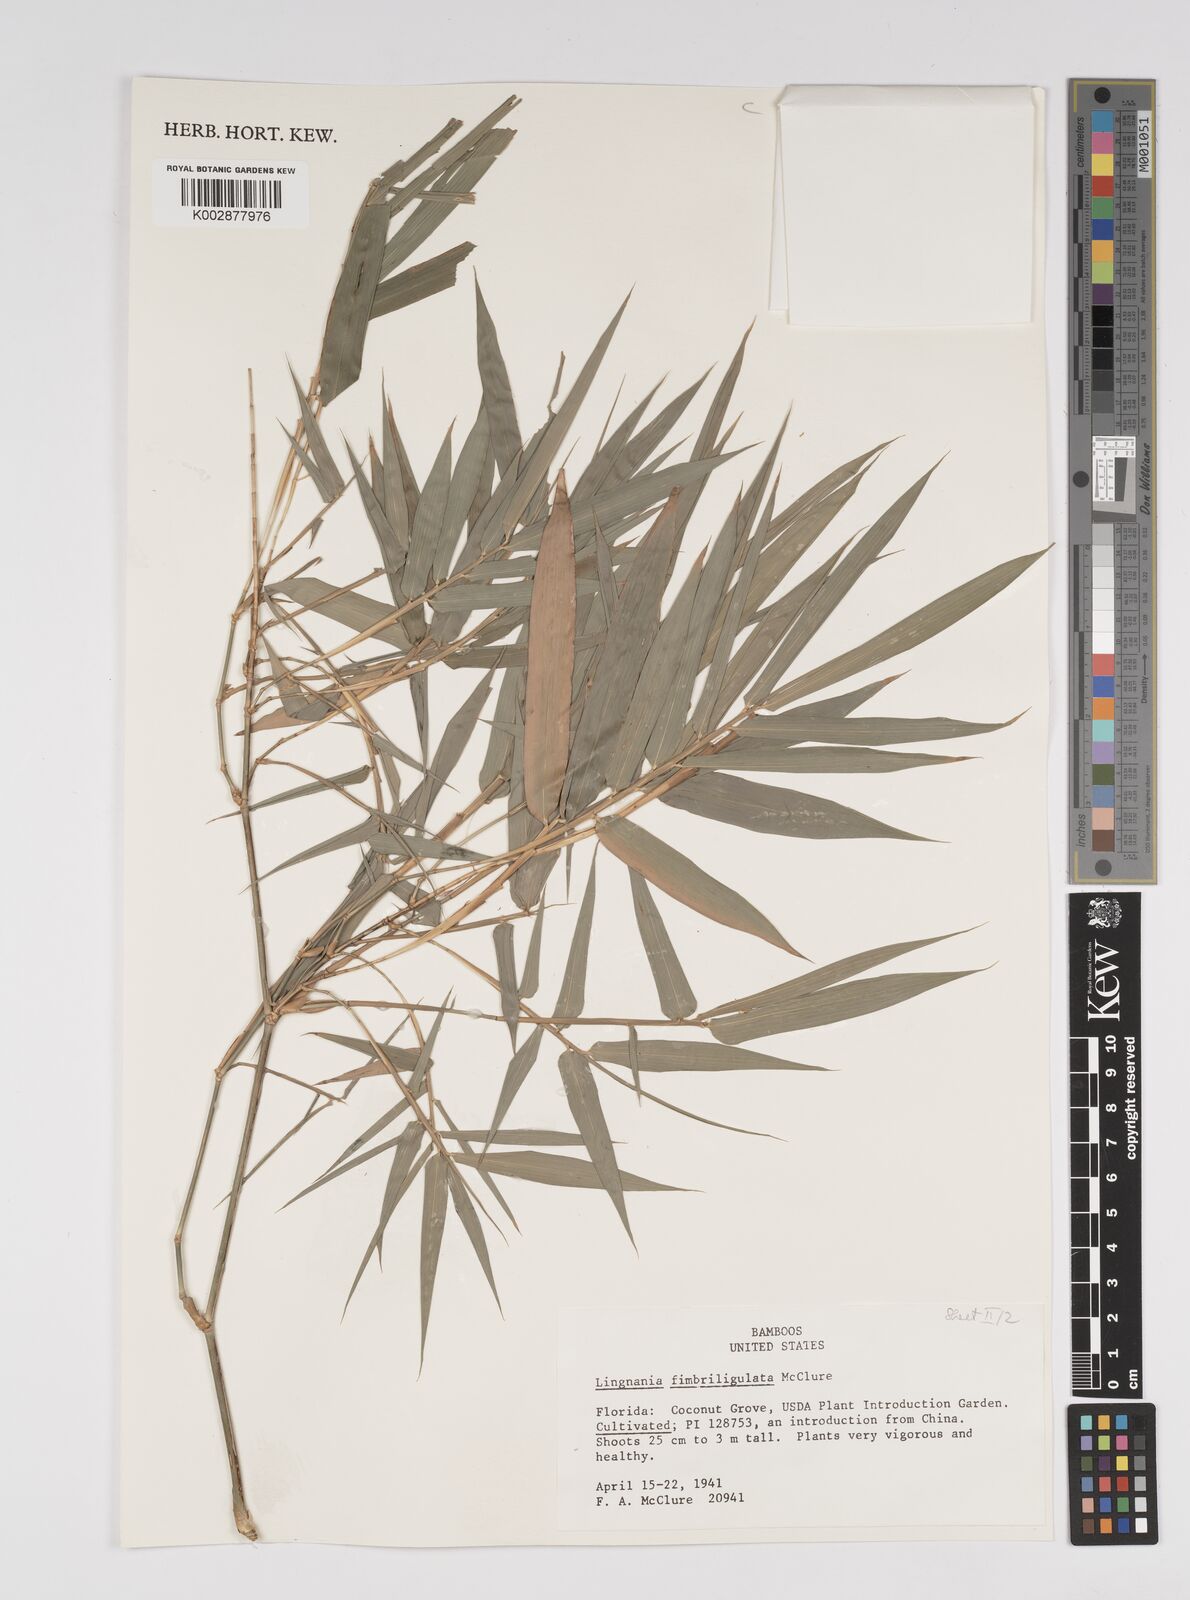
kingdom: Plantae
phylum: Tracheophyta
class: Liliopsida
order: Poales
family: Poaceae
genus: Bambusa
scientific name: Bambusa fimbriligulata
